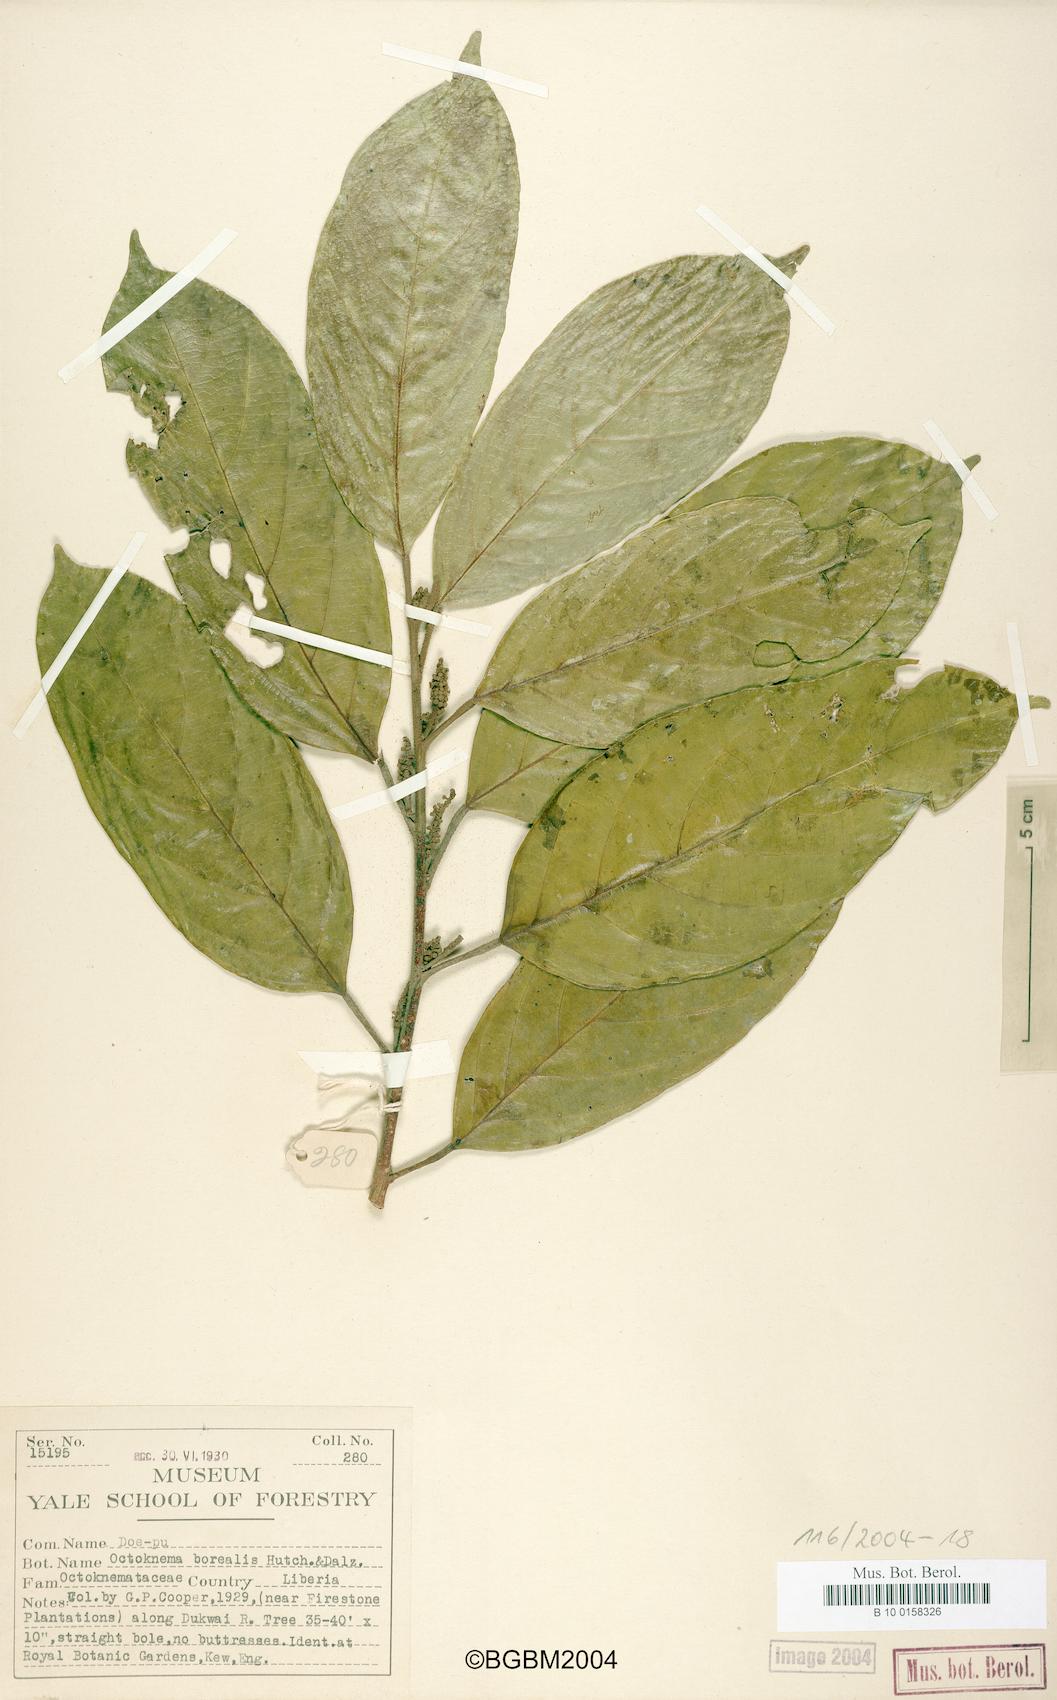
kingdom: Plantae
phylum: Tracheophyta
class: Magnoliopsida
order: Santalales
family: Octoknemaceae
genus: Octoknema
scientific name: Octoknema borealis
